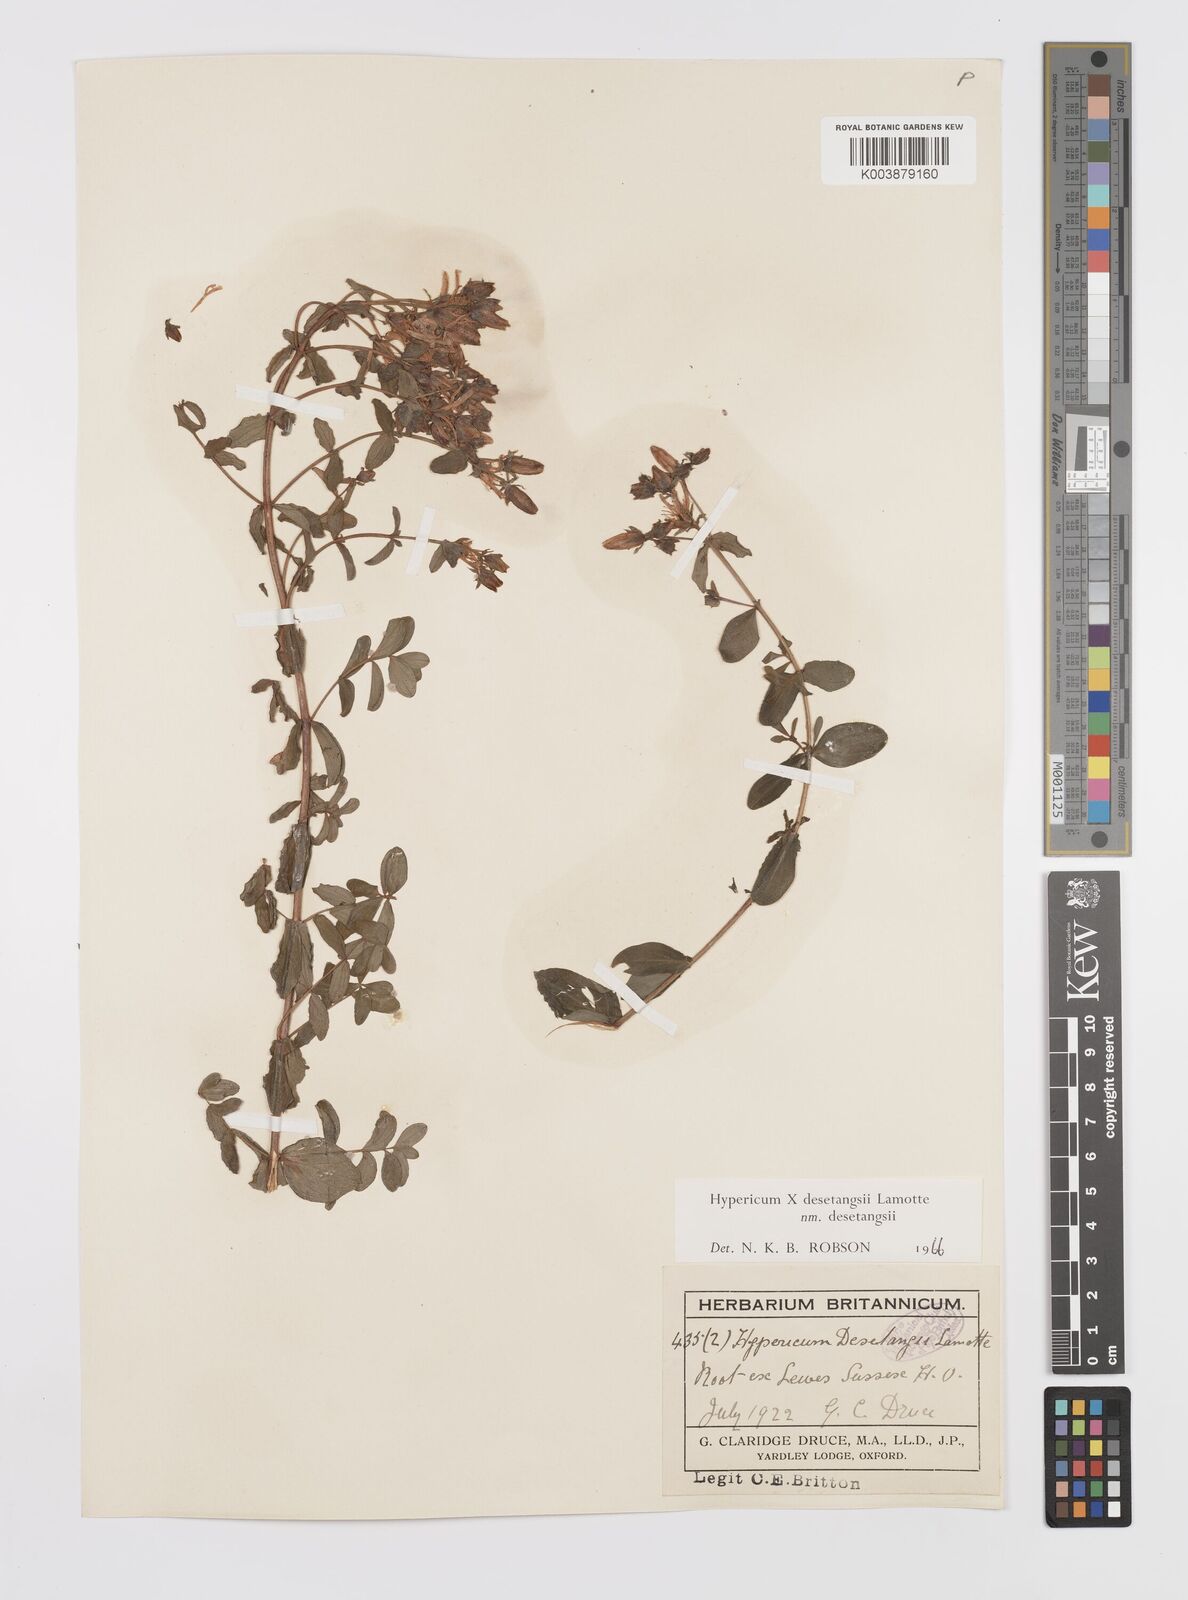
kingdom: Plantae
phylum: Tracheophyta
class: Magnoliopsida
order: Malpighiales
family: Hypericaceae
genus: Hypericum
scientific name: Hypericum desetangsii
